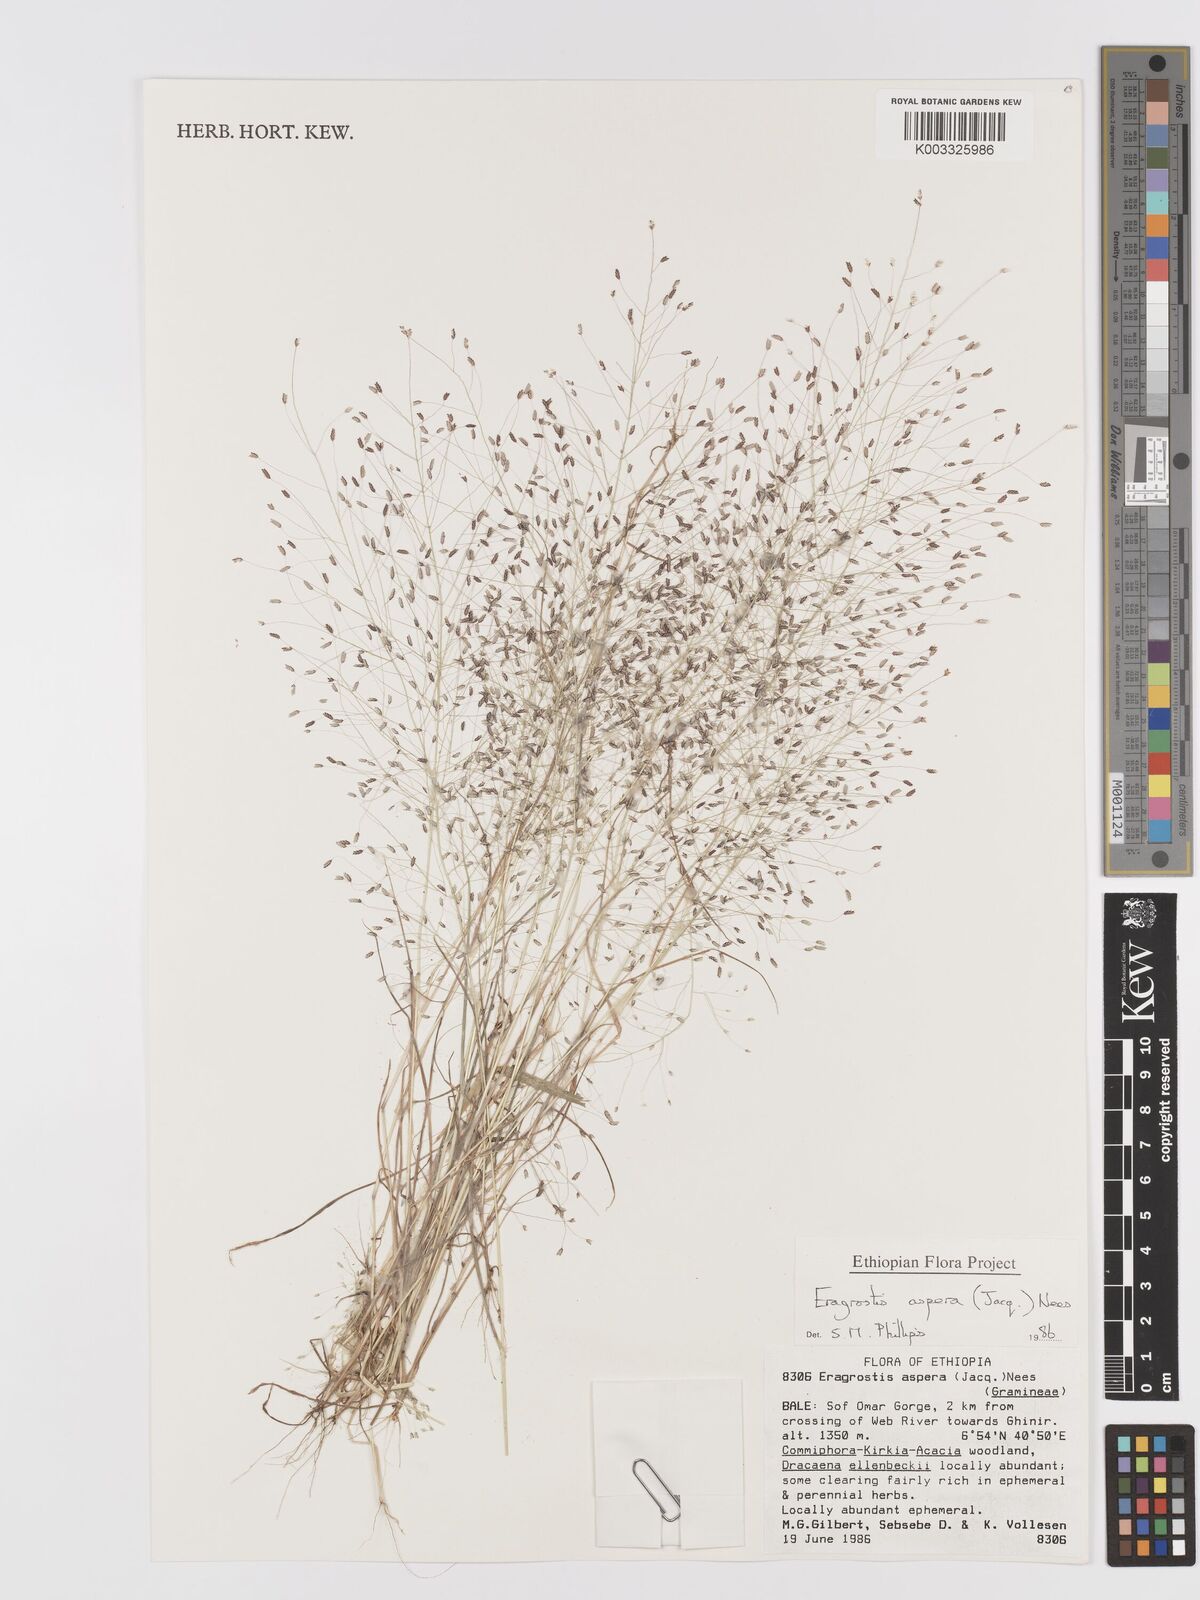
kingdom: Plantae
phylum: Tracheophyta
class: Liliopsida
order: Poales
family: Poaceae
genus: Eragrostis
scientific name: Eragrostis aspera
